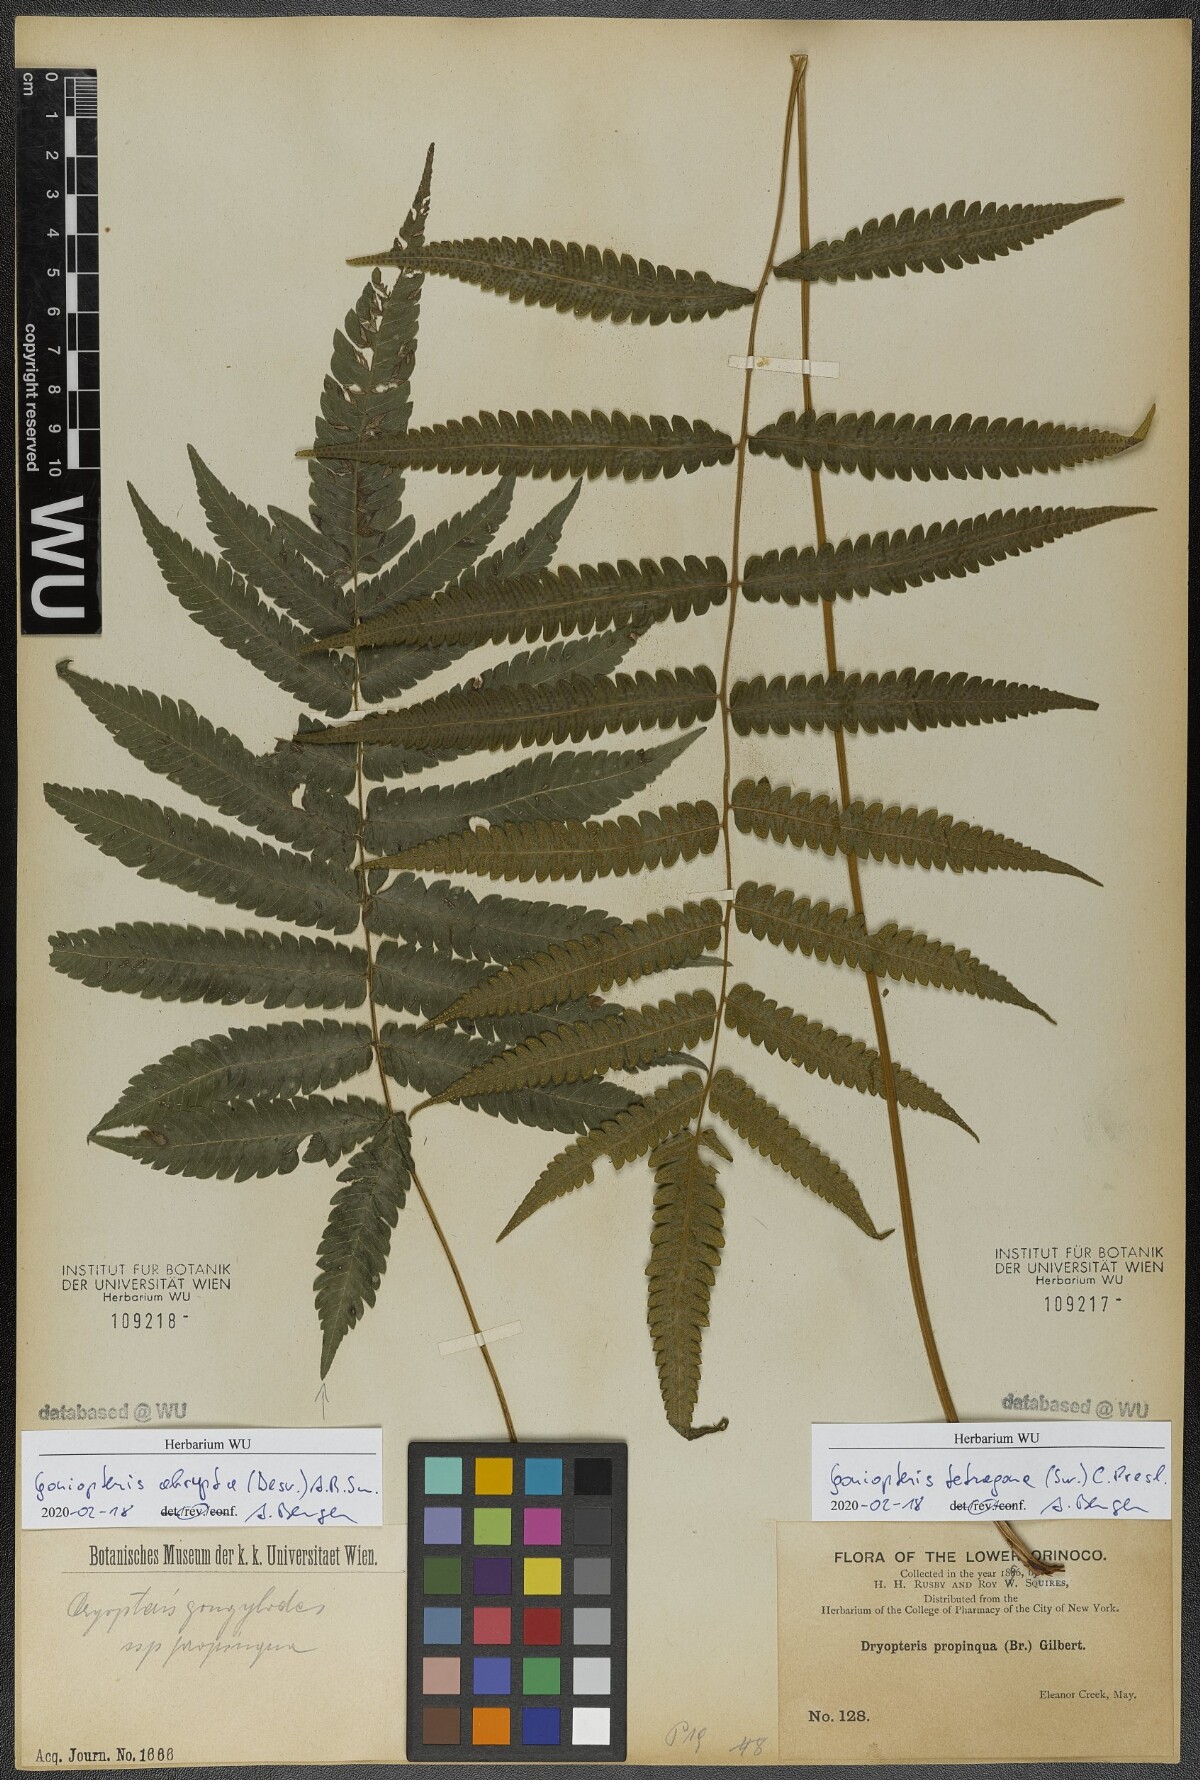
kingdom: Plantae
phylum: Tracheophyta
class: Polypodiopsida
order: Polypodiales
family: Thelypteridaceae
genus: Goniopteris
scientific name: Goniopteris tetragona
